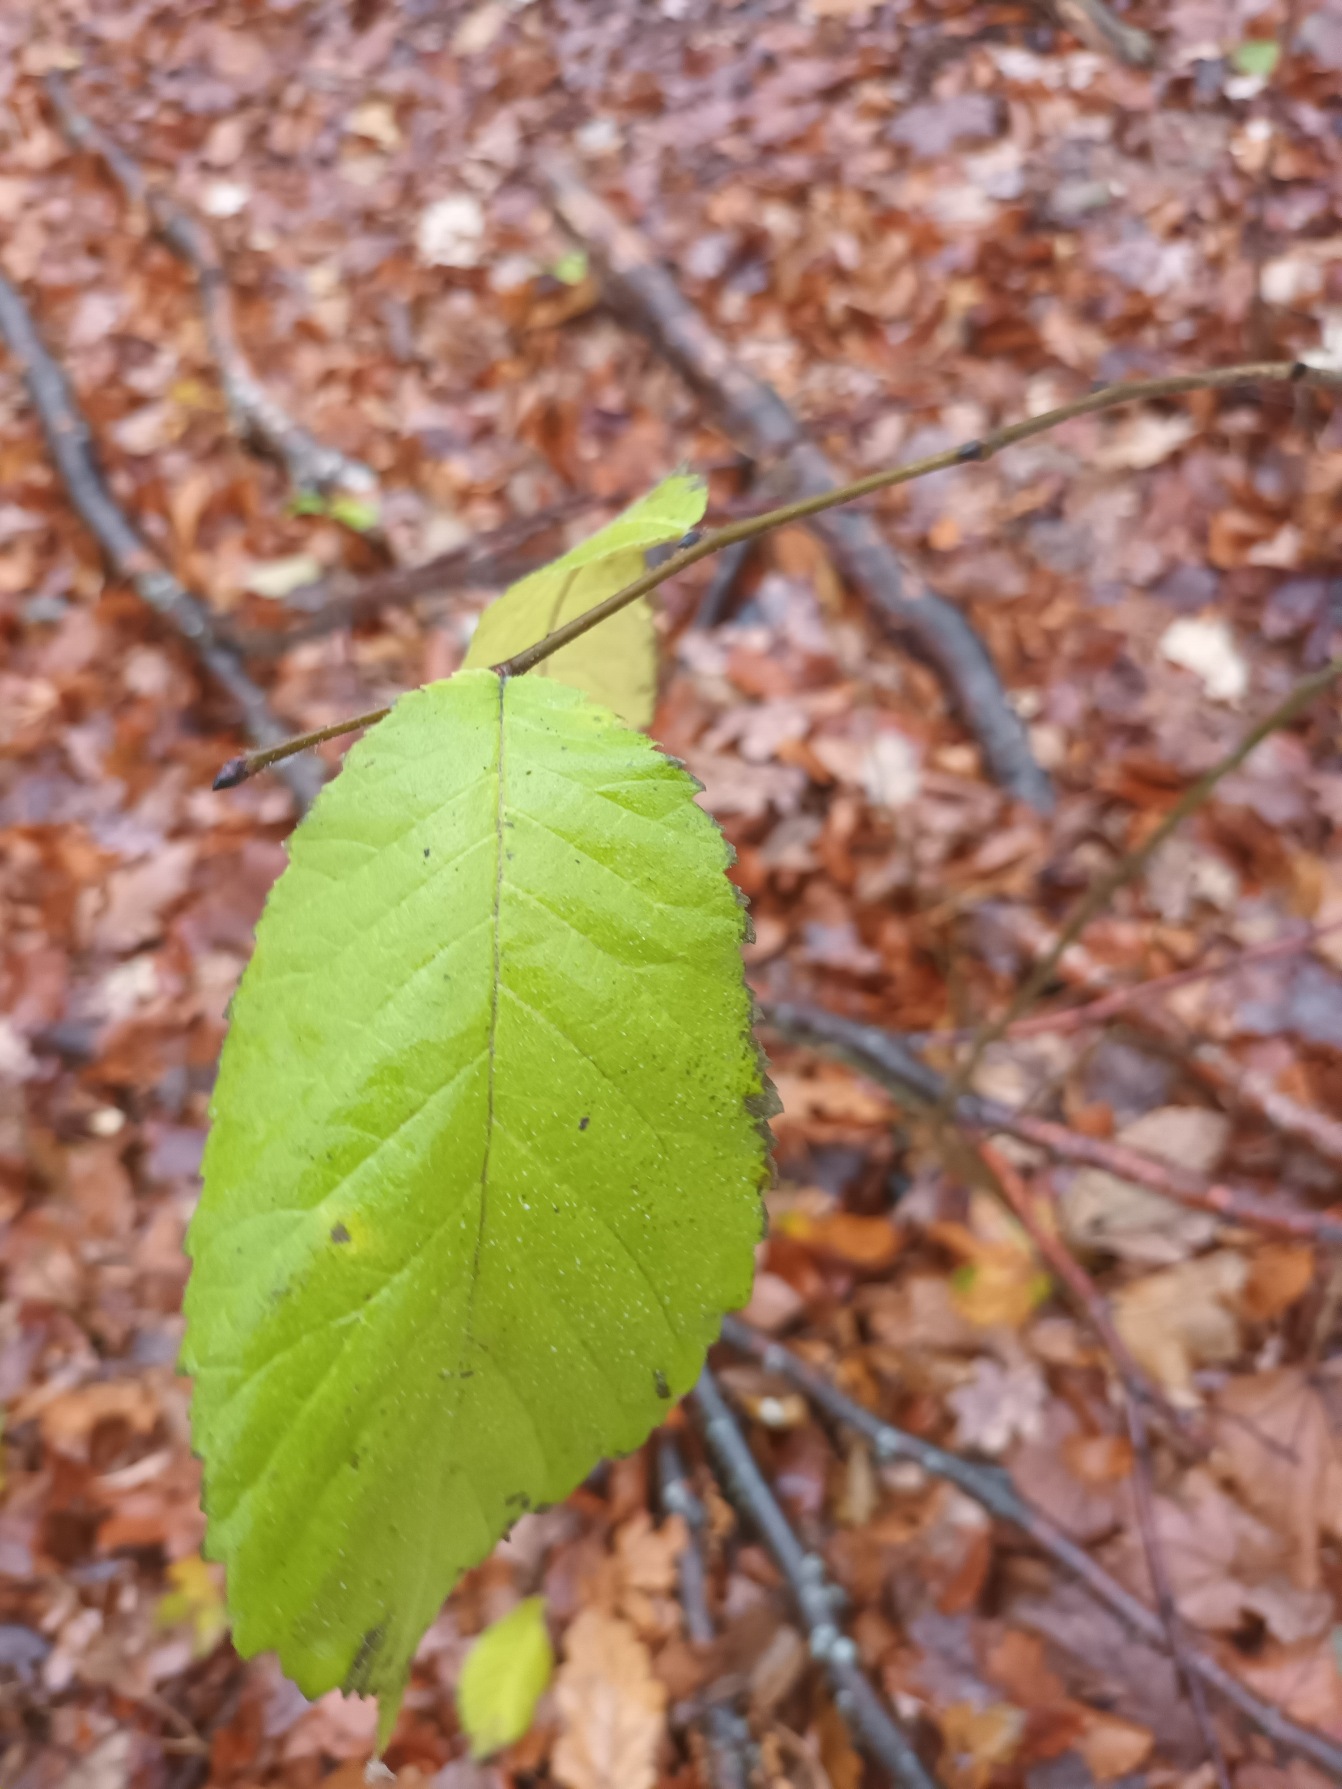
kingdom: Plantae
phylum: Tracheophyta
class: Magnoliopsida
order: Rosales
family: Ulmaceae
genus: Ulmus
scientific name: Ulmus glabra
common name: Skov-elm/storbladet elm
